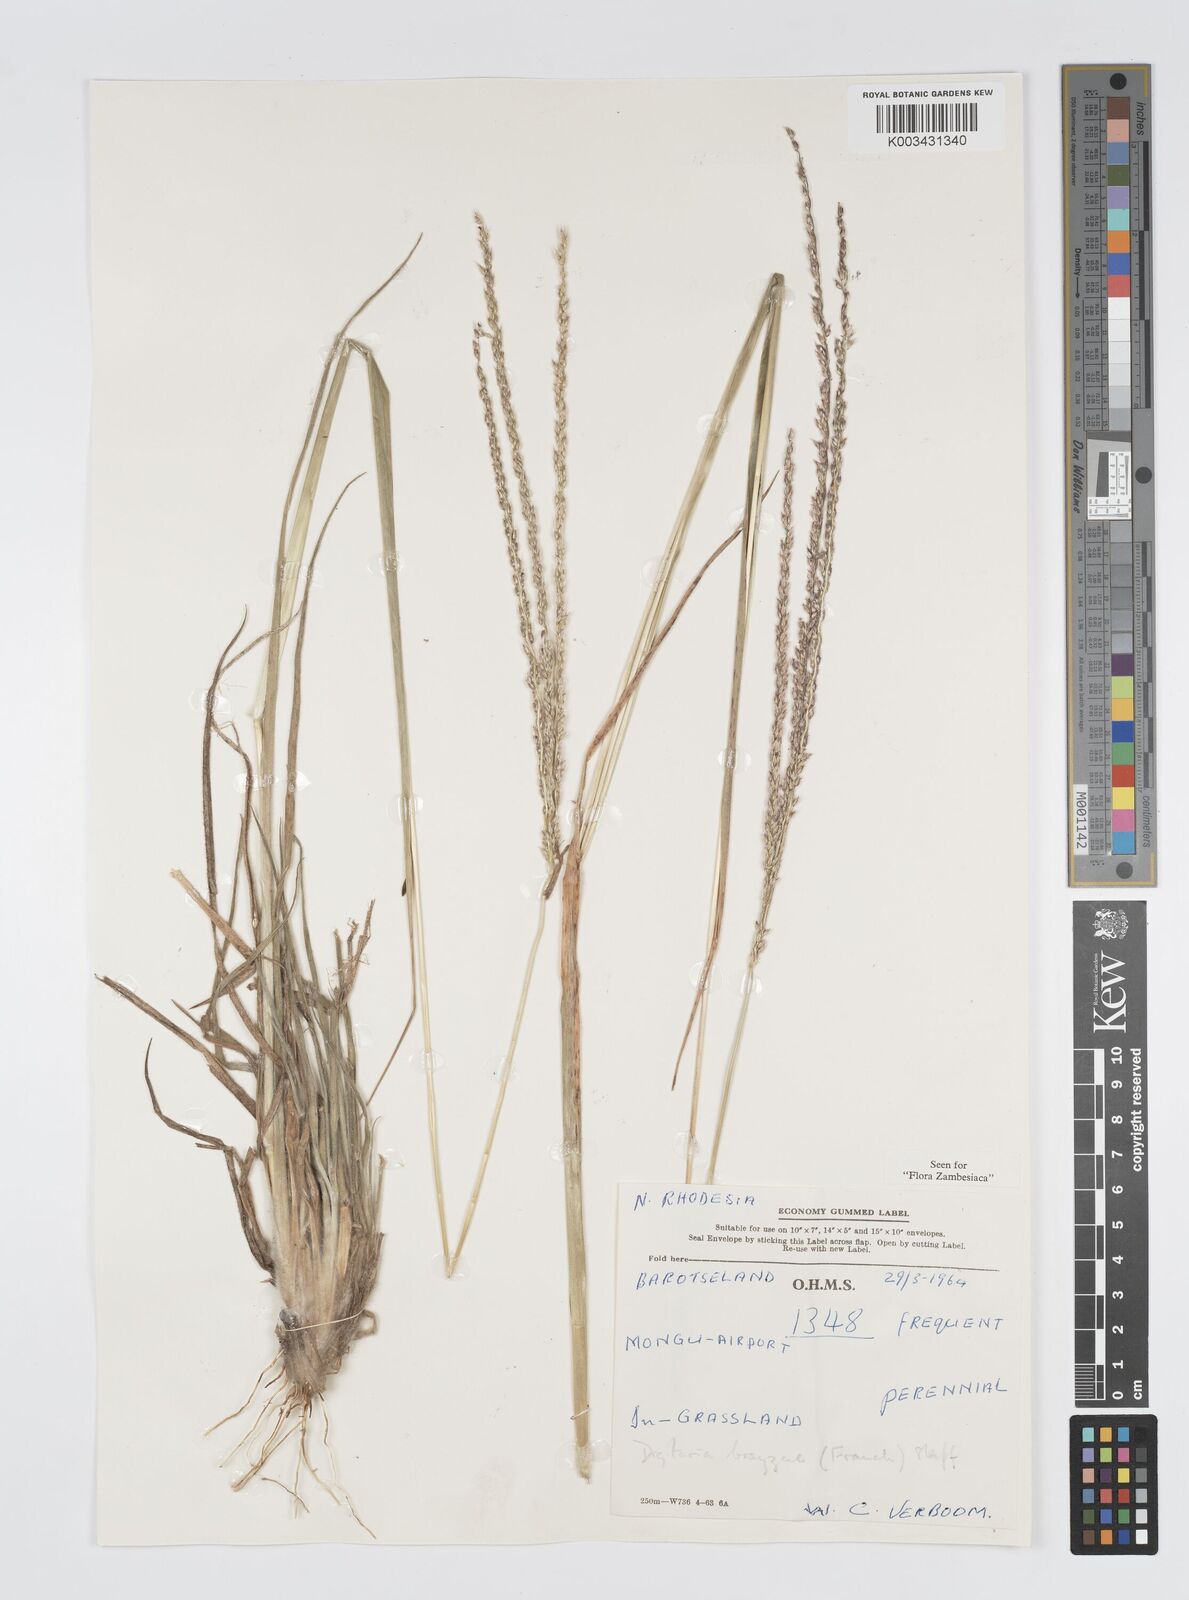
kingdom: Plantae
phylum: Tracheophyta
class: Liliopsida
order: Poales
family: Poaceae
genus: Digitaria
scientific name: Digitaria brazzae
